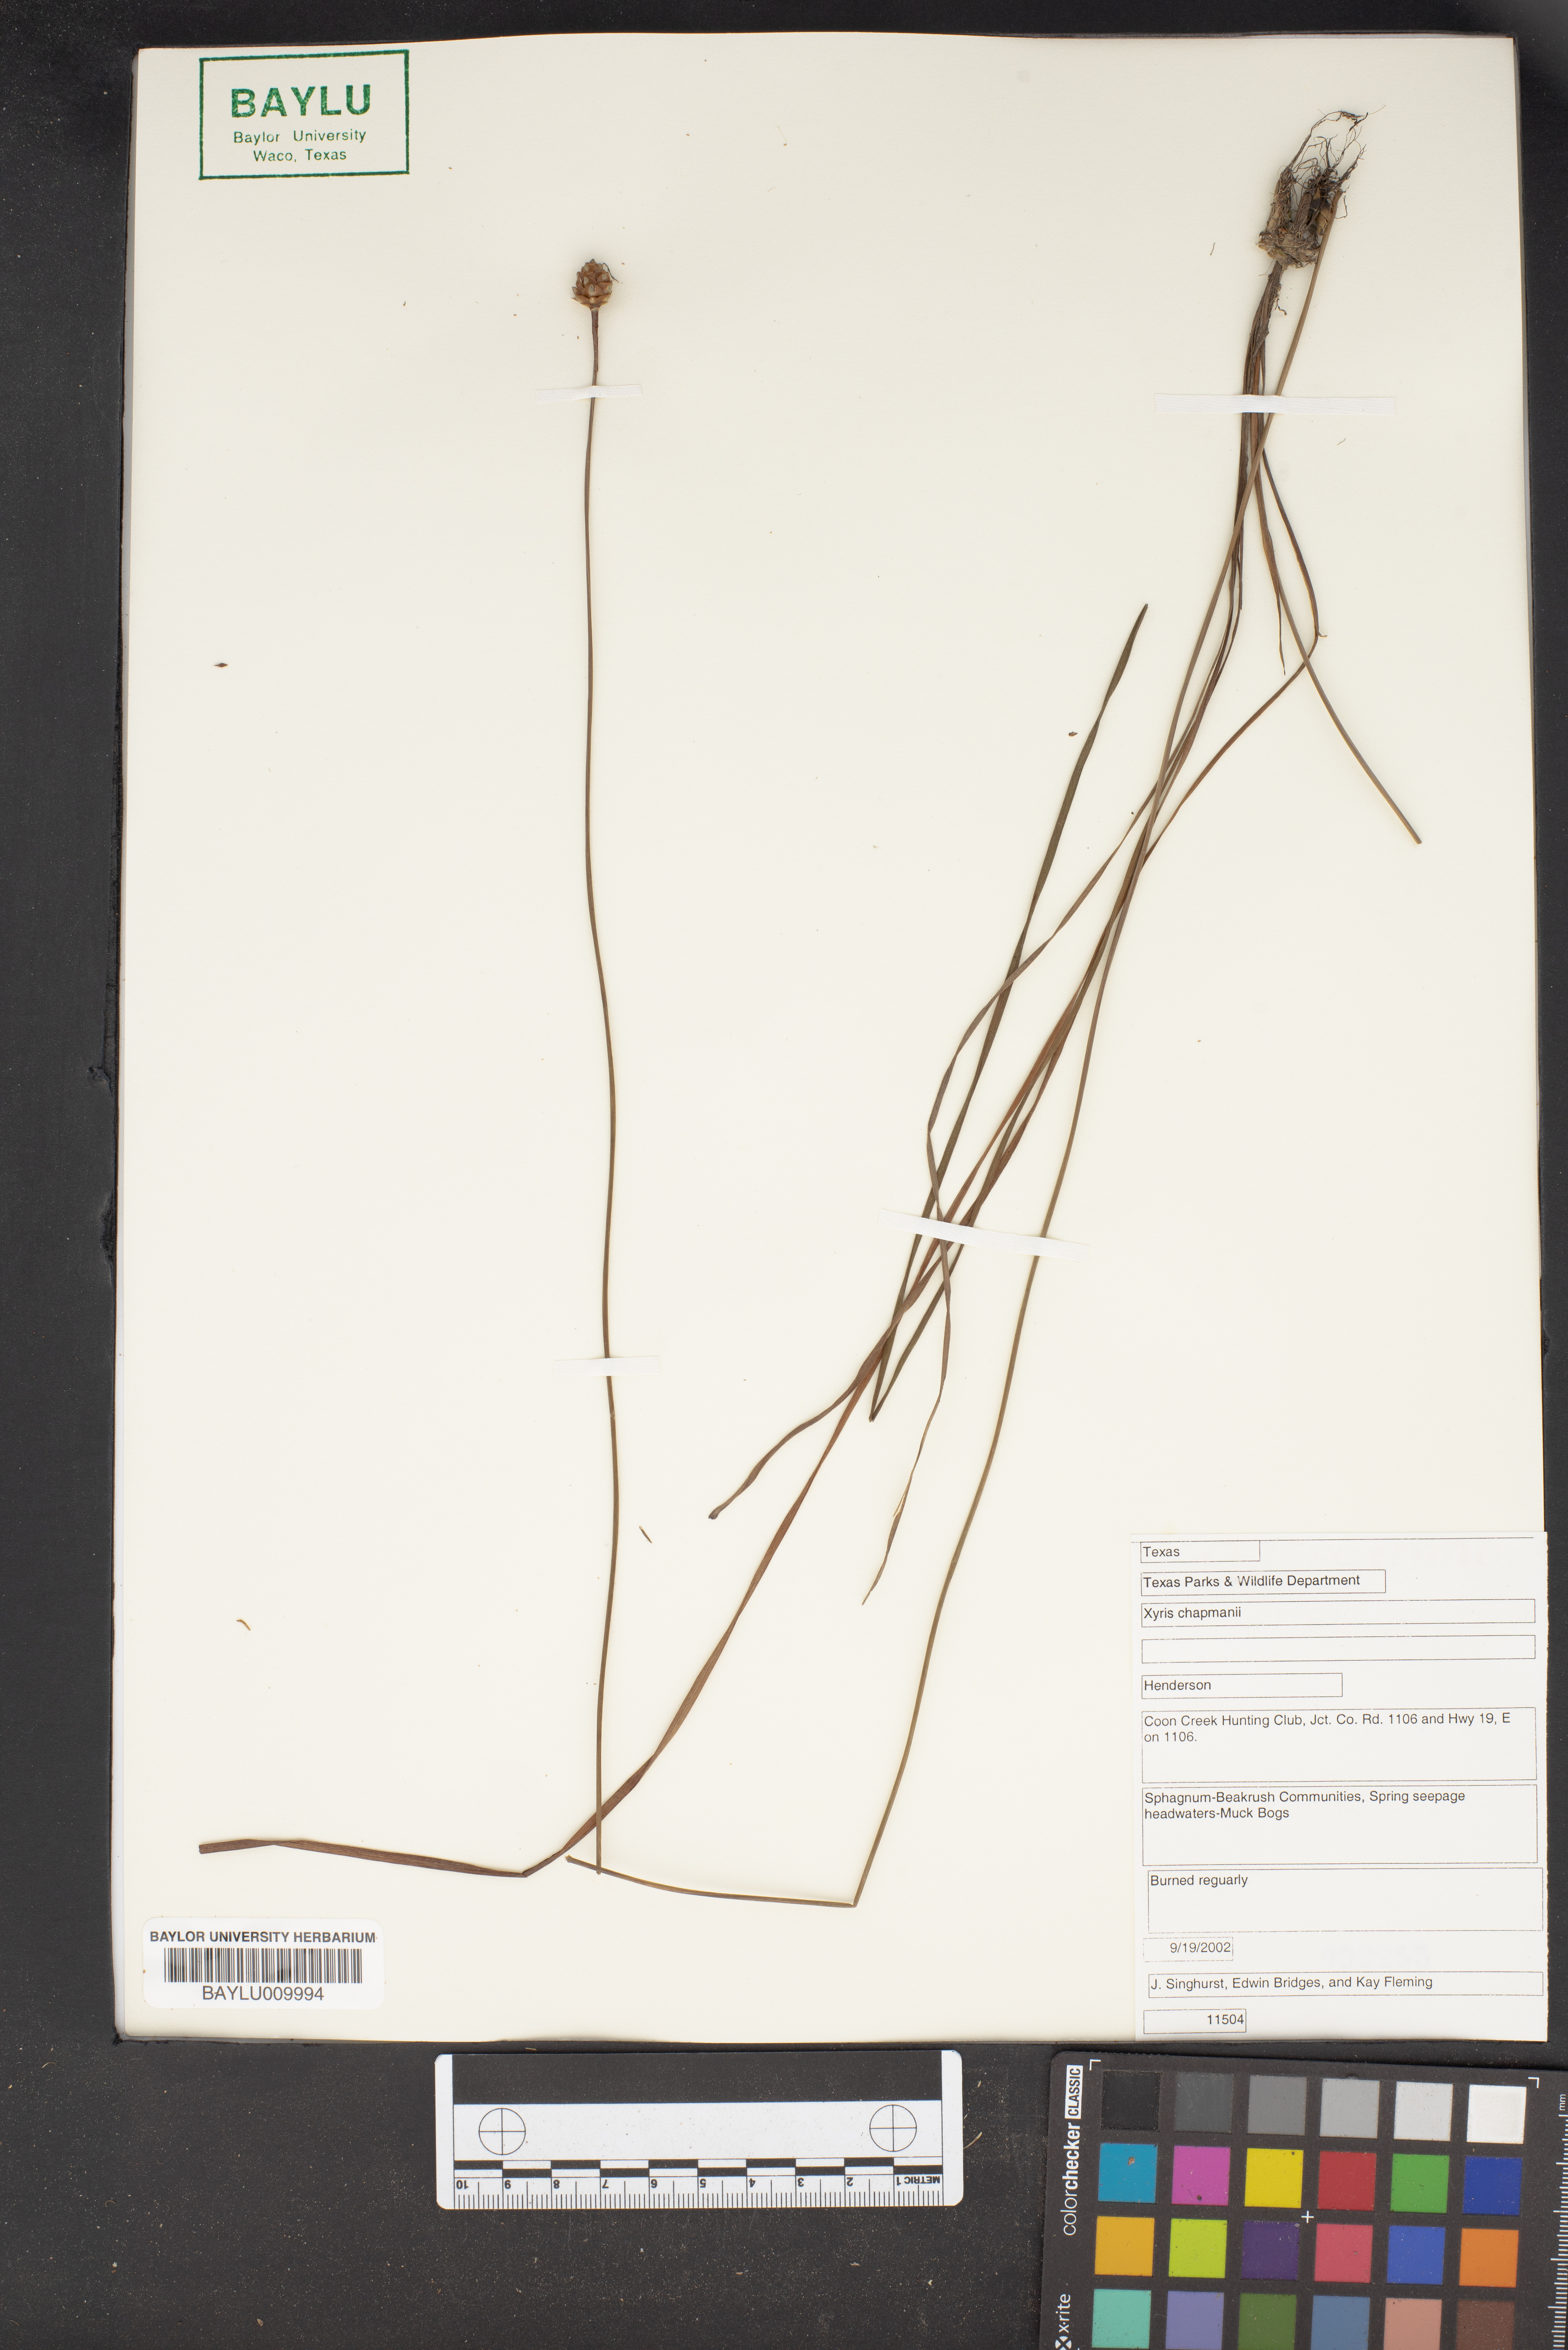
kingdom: Plantae
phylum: Tracheophyta
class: Liliopsida
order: Poales
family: Xyridaceae
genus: Xyris
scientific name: Xyris chapmanii
